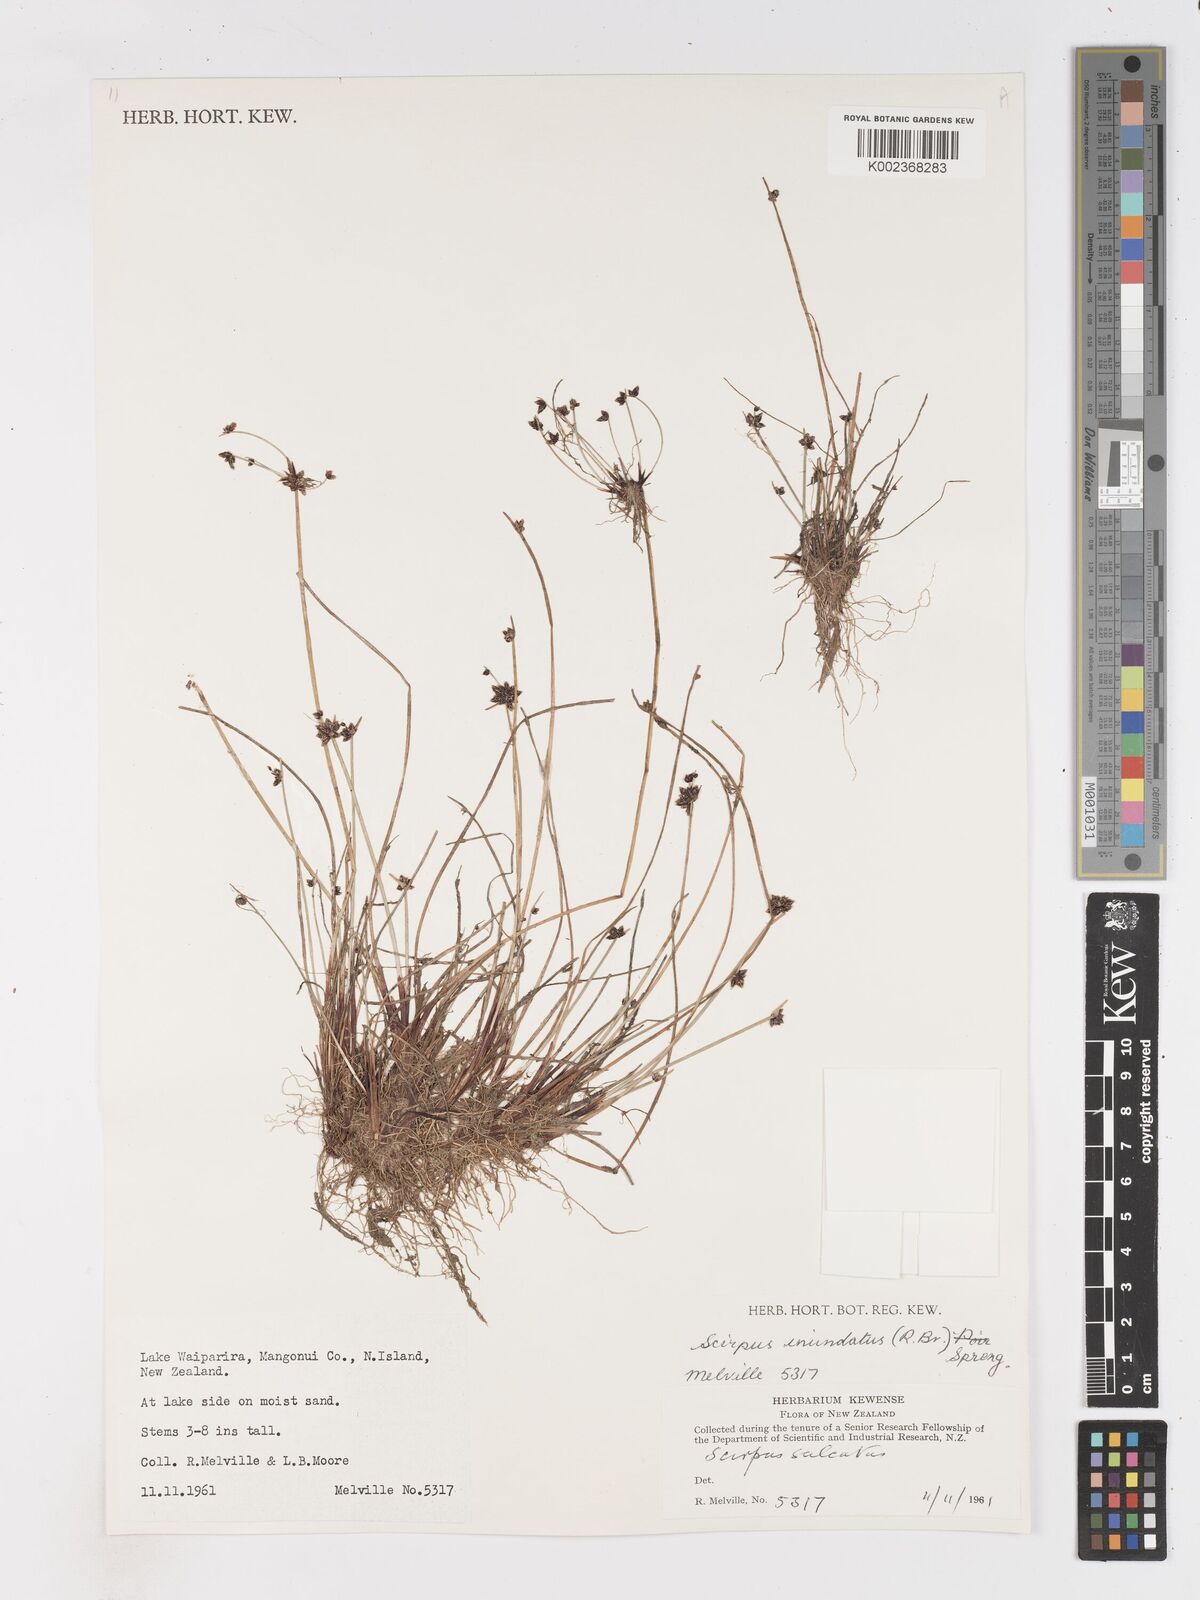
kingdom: Plantae
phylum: Tracheophyta
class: Liliopsida
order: Poales
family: Cyperaceae
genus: Isolepis
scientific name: Isolepis inundata
